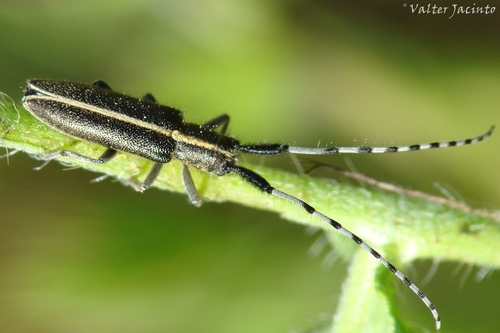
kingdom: Animalia
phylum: Arthropoda
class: Insecta
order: Coleoptera
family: Cerambycidae
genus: Agapanthia
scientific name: Agapanthia
